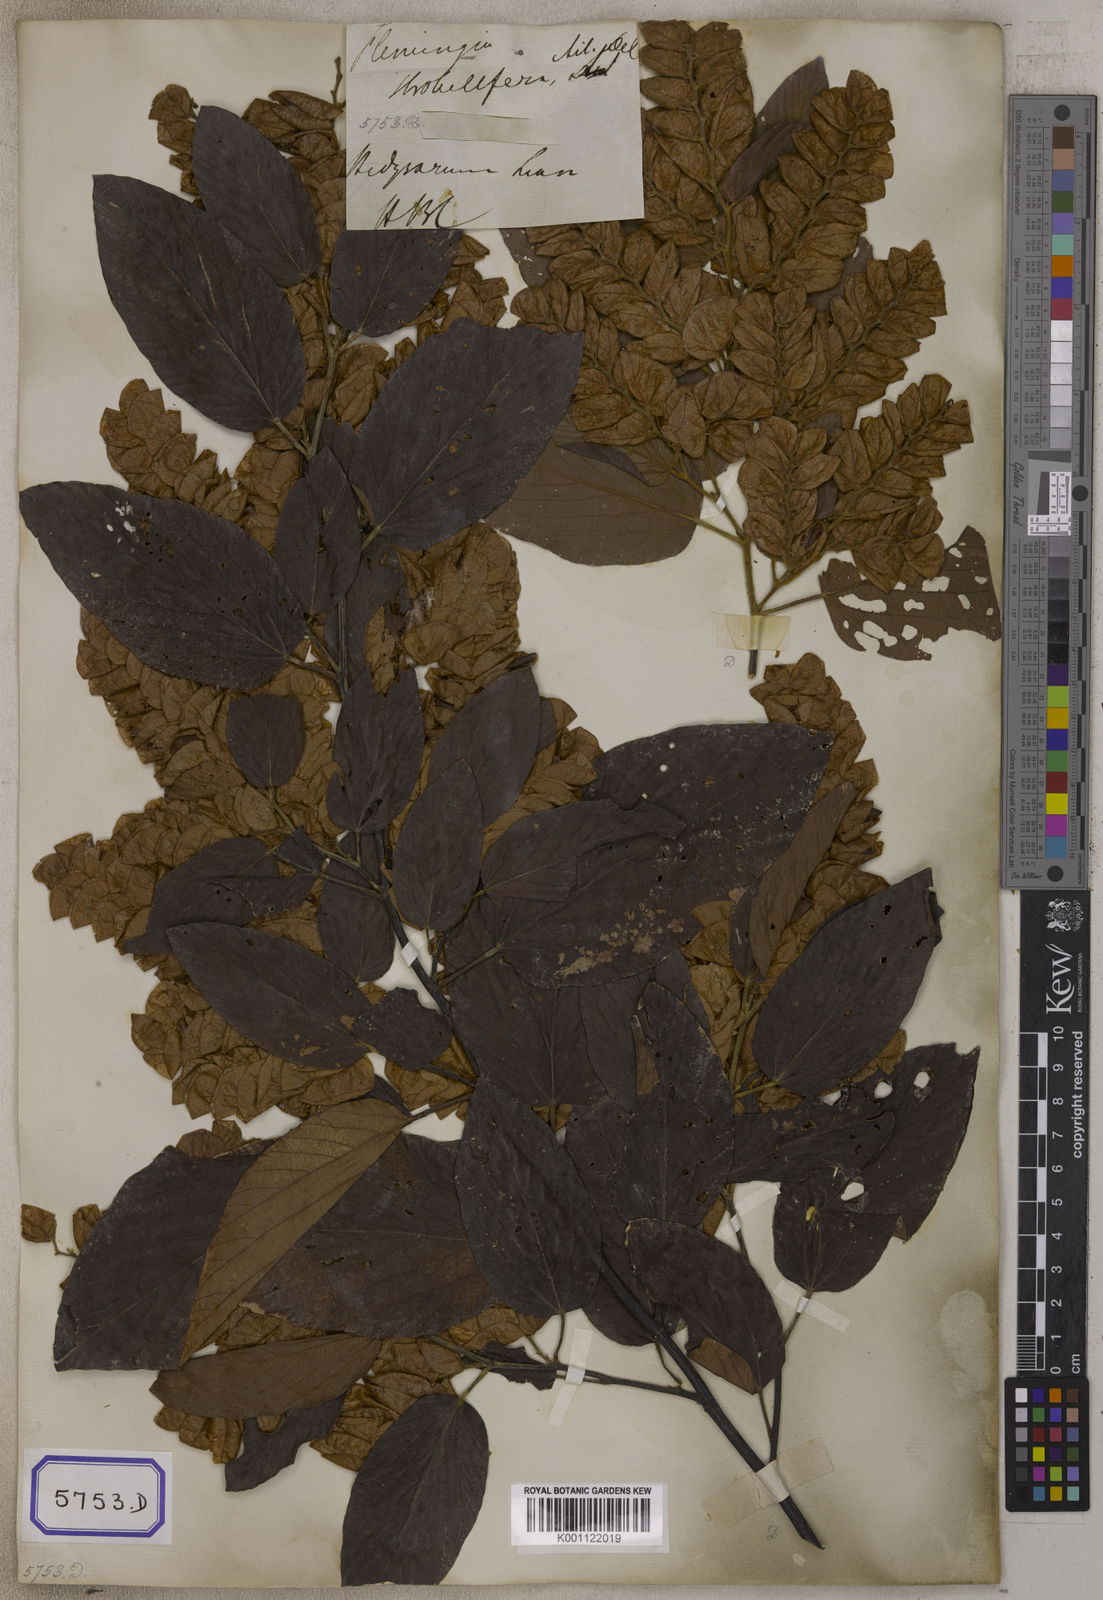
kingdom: Plantae
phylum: Tracheophyta
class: Magnoliopsida
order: Fabales
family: Fabaceae
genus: Flemingia
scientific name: Flemingia strobilifera
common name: Wild hops
